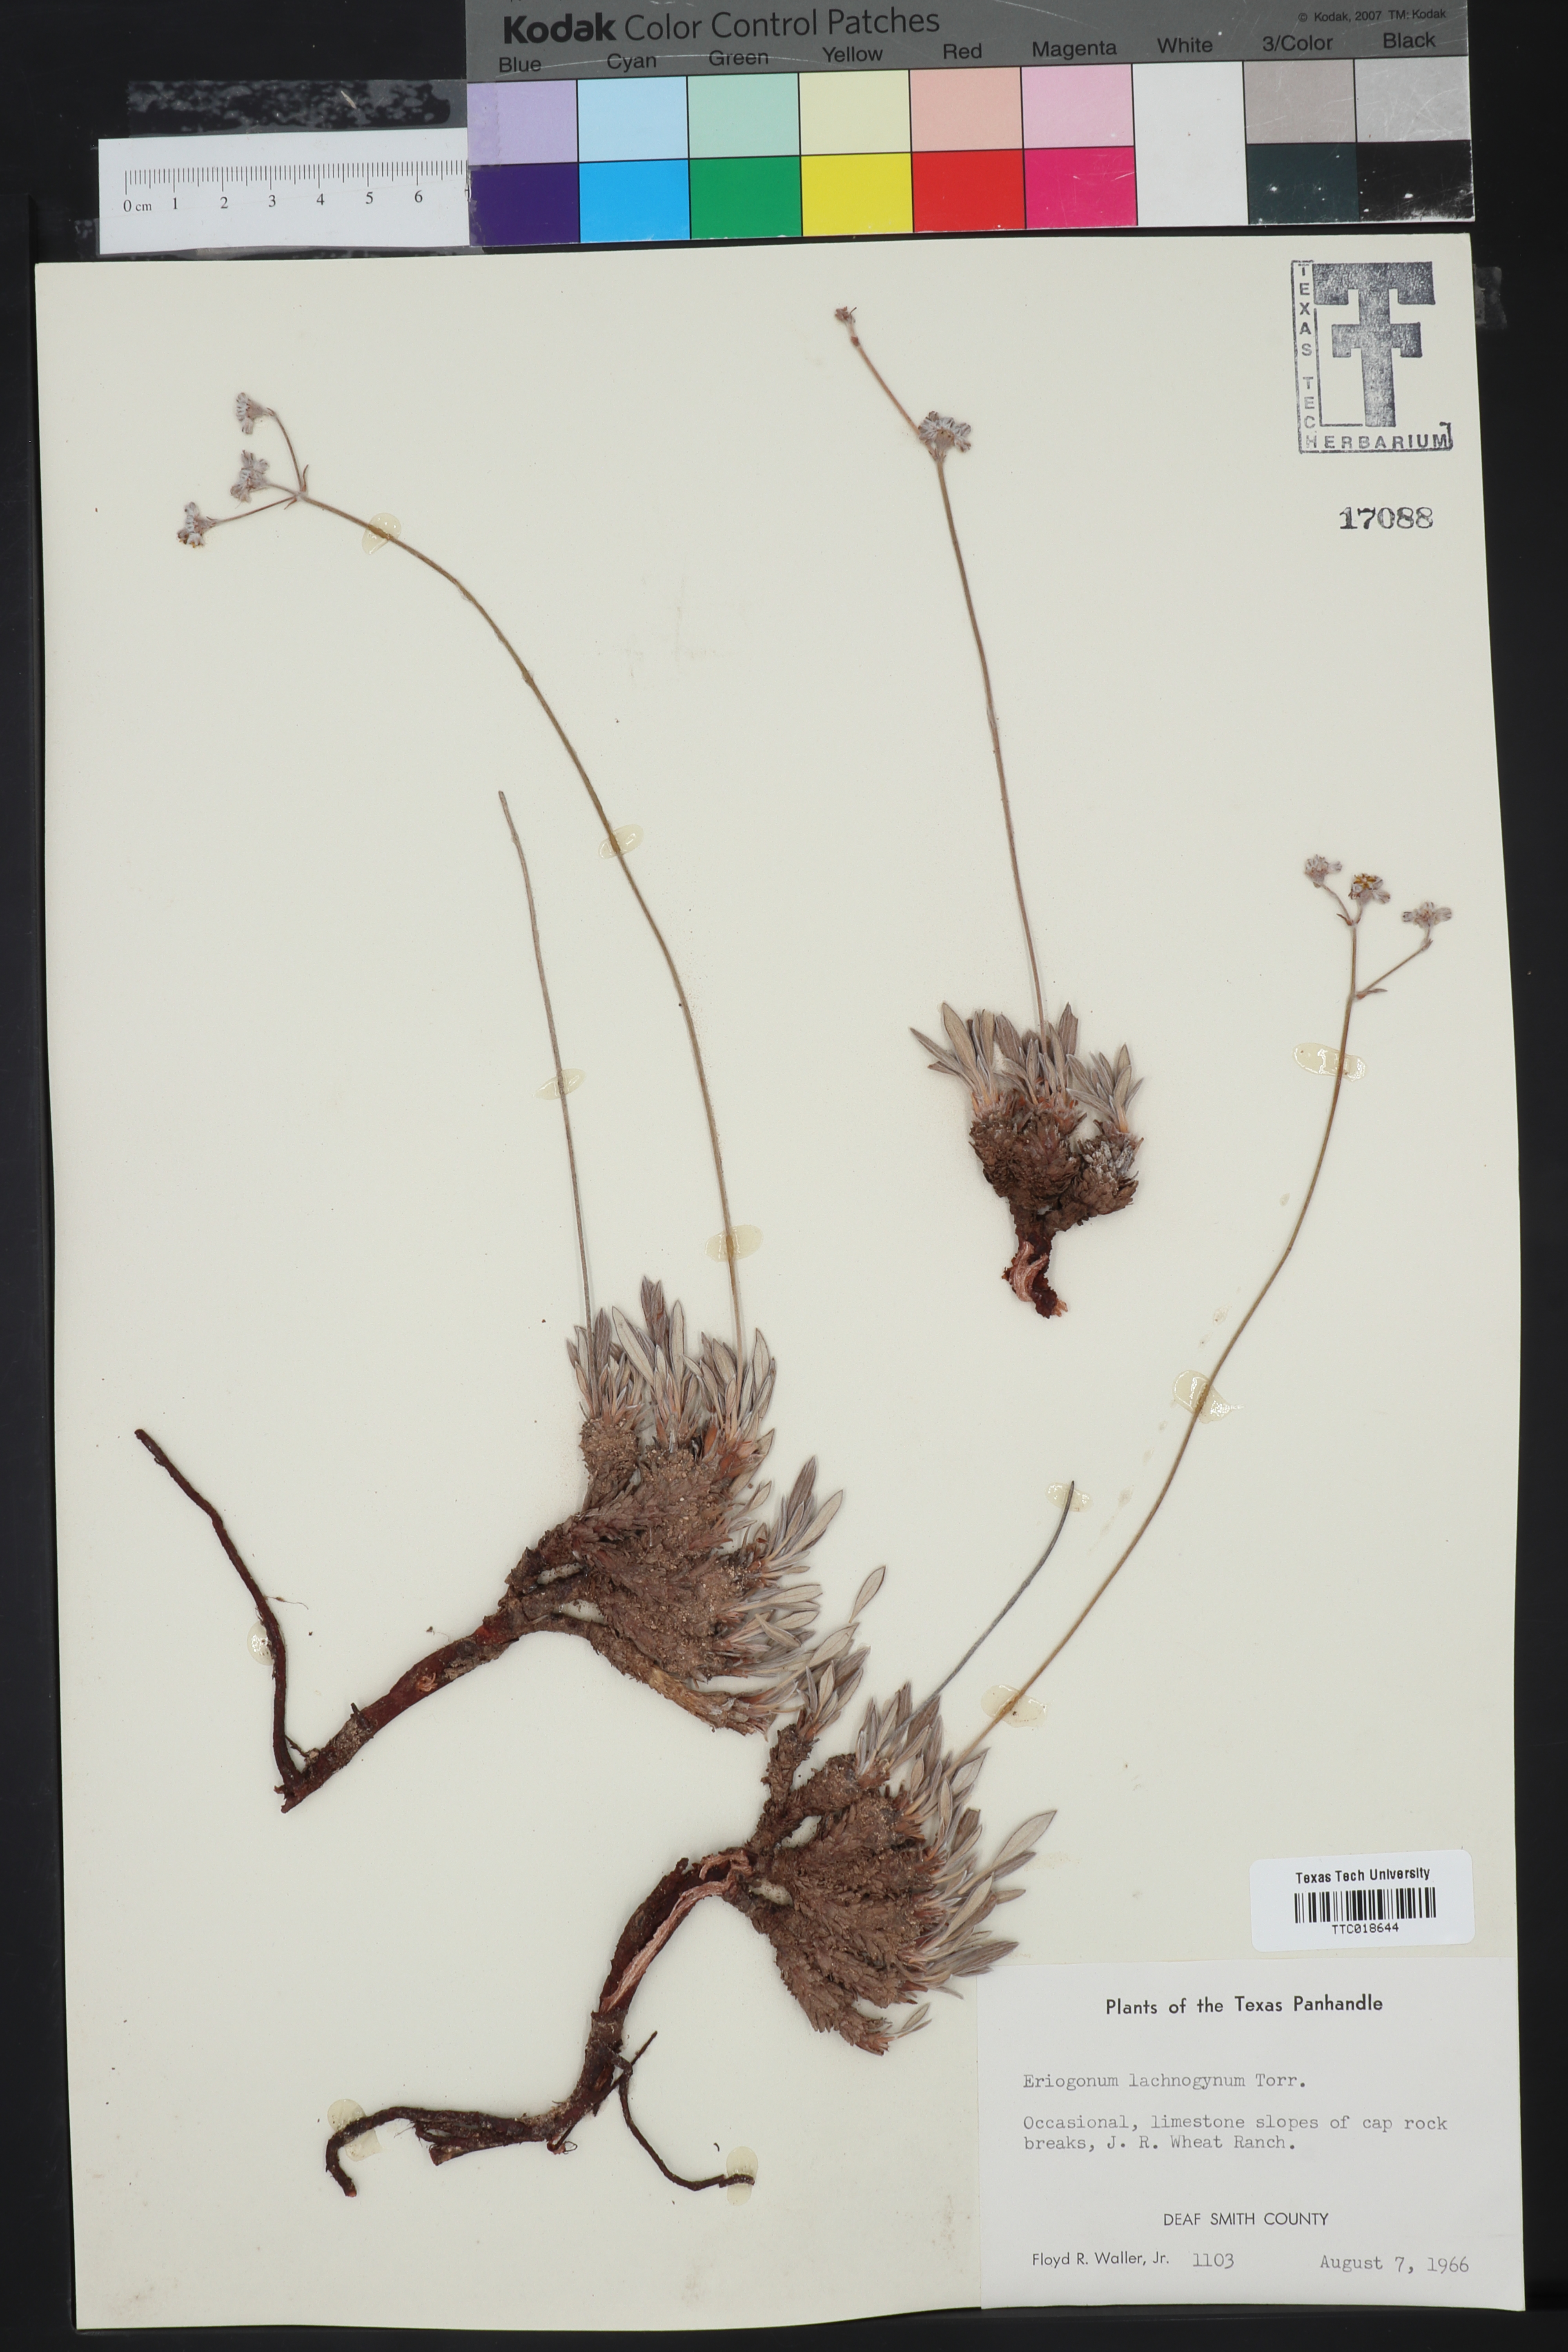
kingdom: Plantae
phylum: Tracheophyta
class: Magnoliopsida
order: Caryophyllales
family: Polygonaceae
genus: Eriogonum
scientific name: Eriogonum lachnogynum
